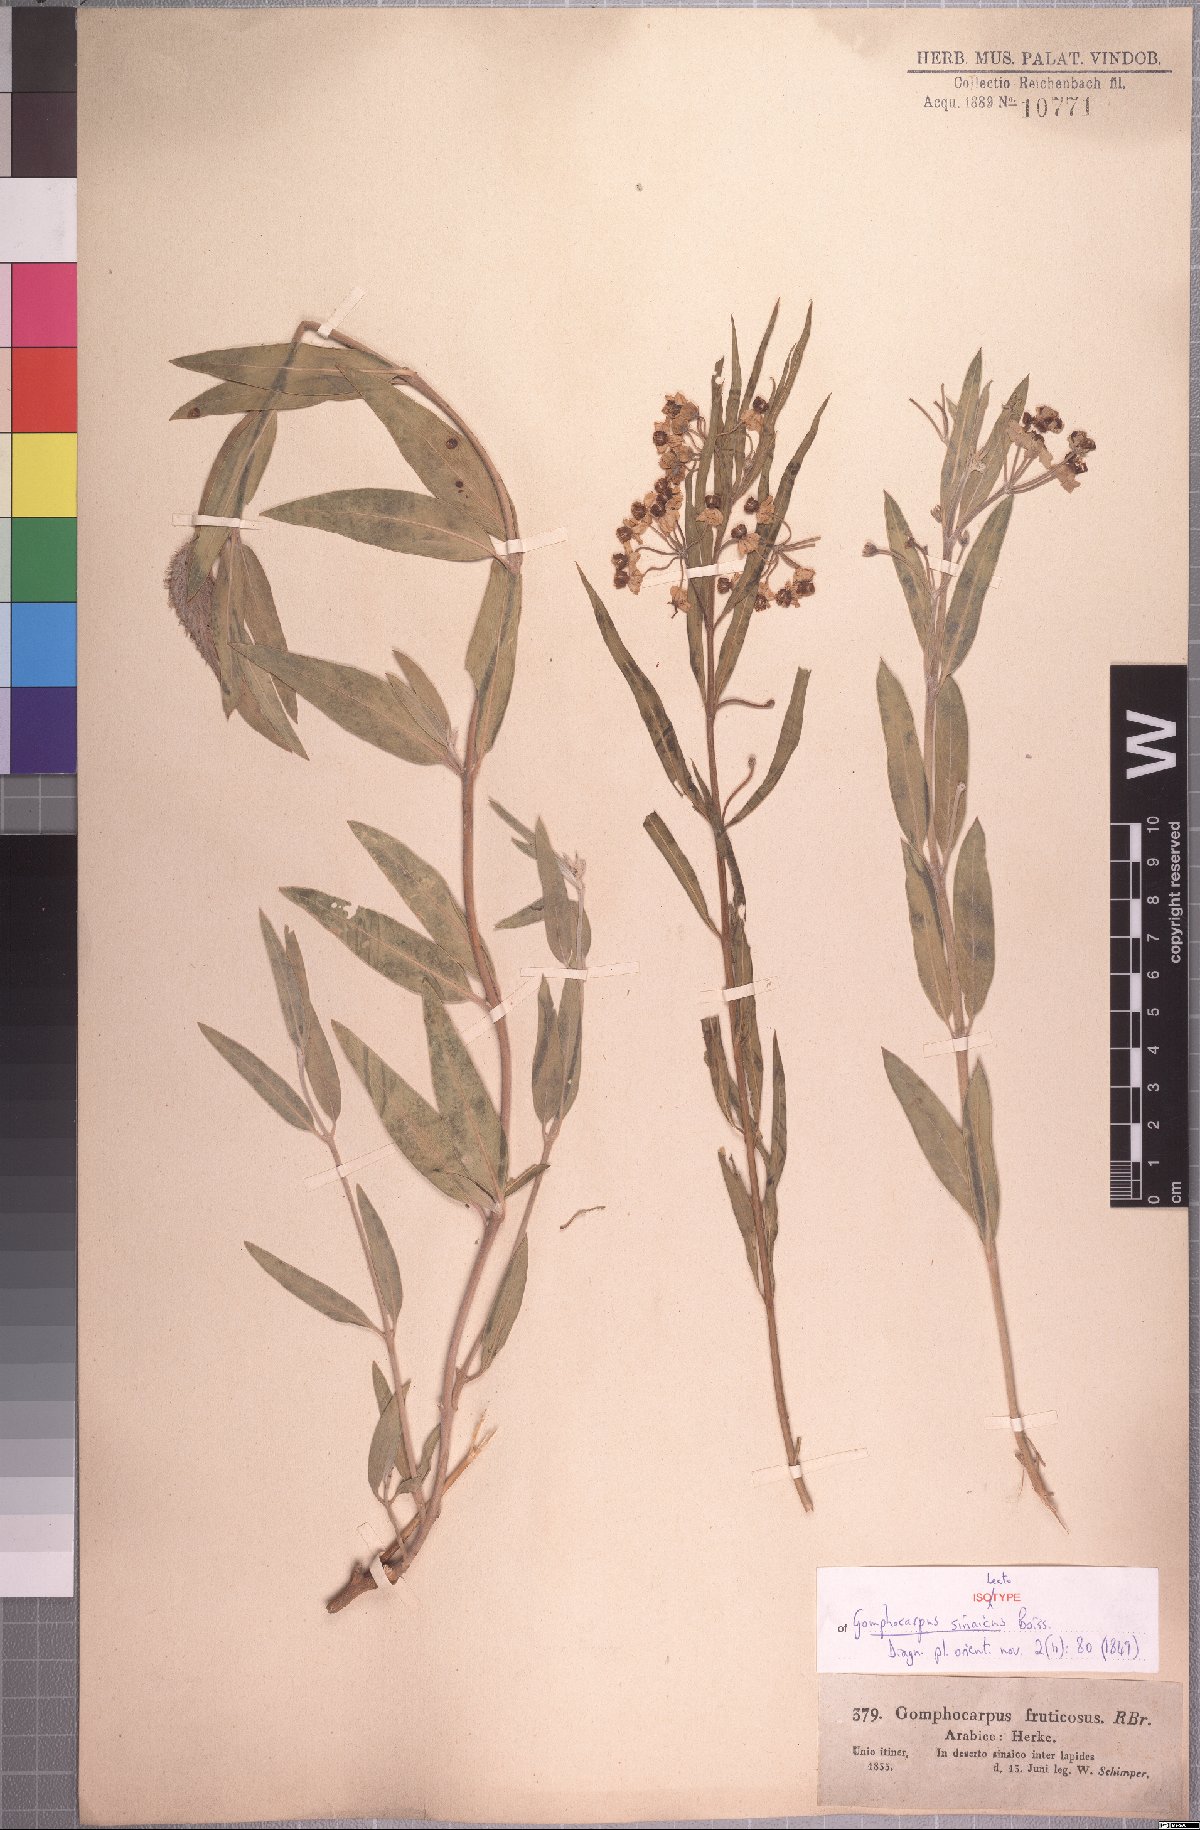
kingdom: Plantae
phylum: Tracheophyta
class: Magnoliopsida
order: Gentianales
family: Apocynaceae
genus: Gomphocarpus
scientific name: Gomphocarpus sinaicus
